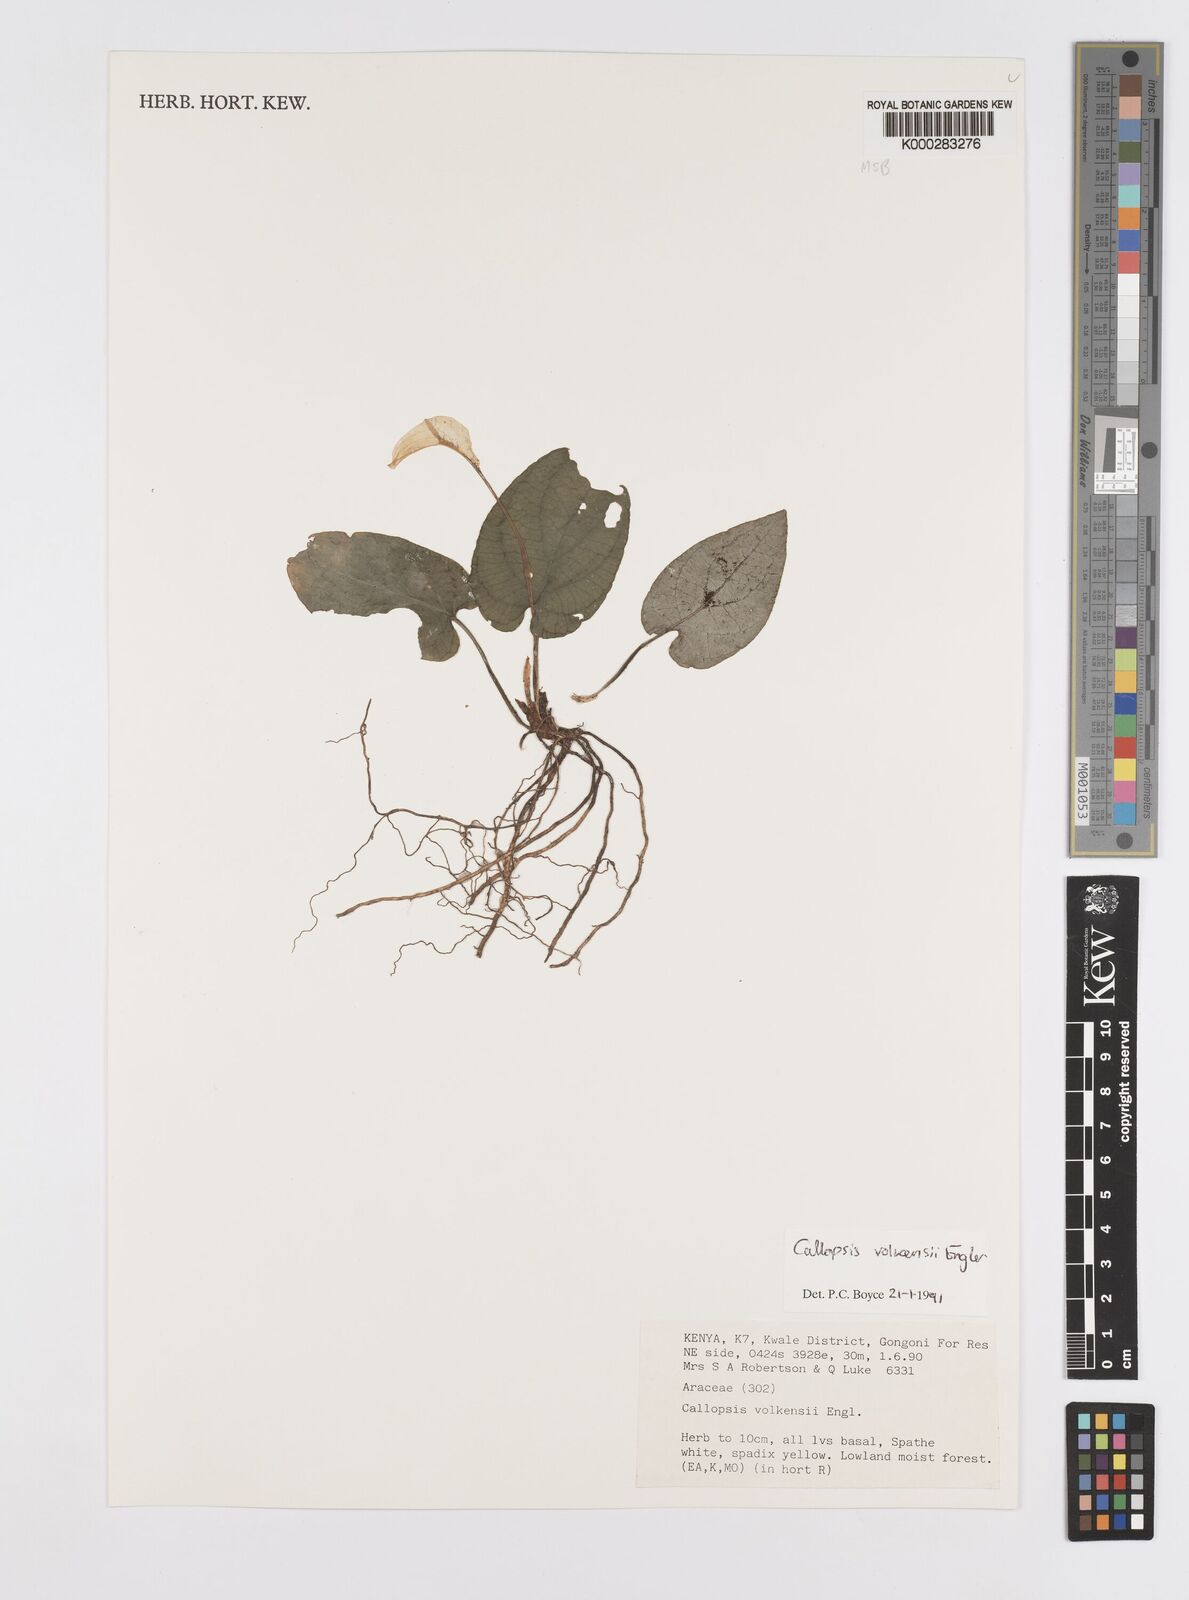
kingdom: Plantae
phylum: Tracheophyta
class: Liliopsida
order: Alismatales
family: Araceae
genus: Callopsis
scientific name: Callopsis volkensii
